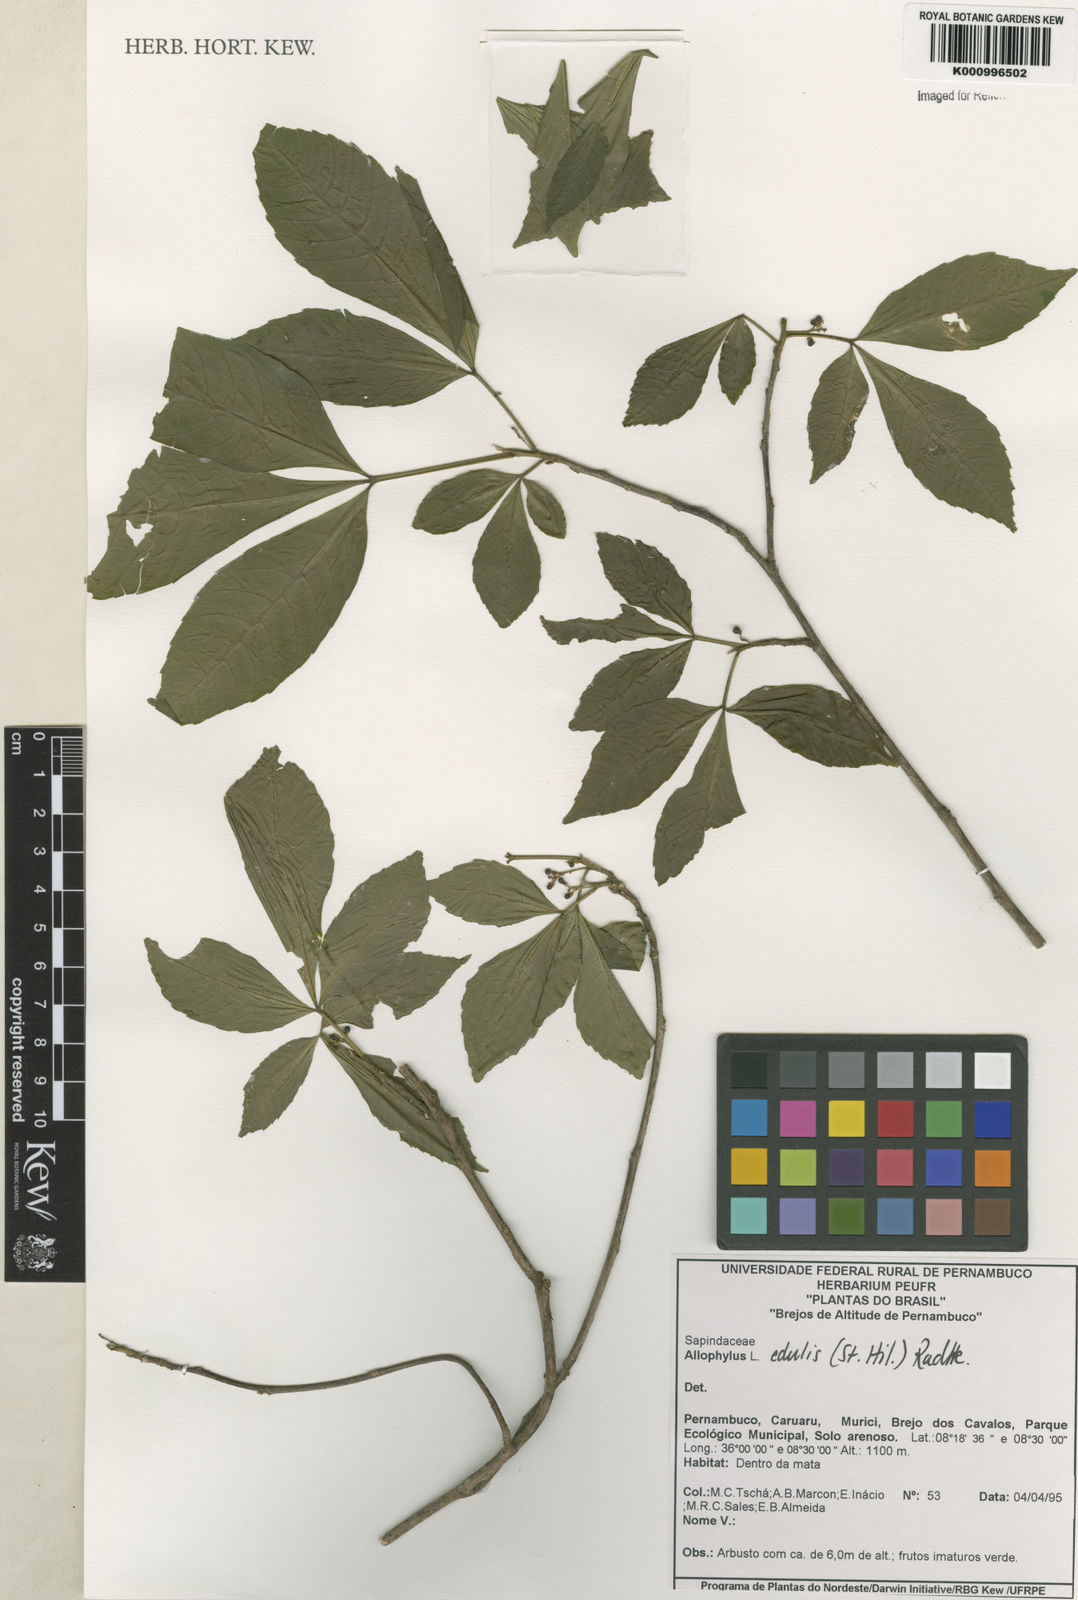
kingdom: Plantae
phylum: Tracheophyta
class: Magnoliopsida
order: Sapindales
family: Sapindaceae
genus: Allophylus
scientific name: Allophylus edulis
